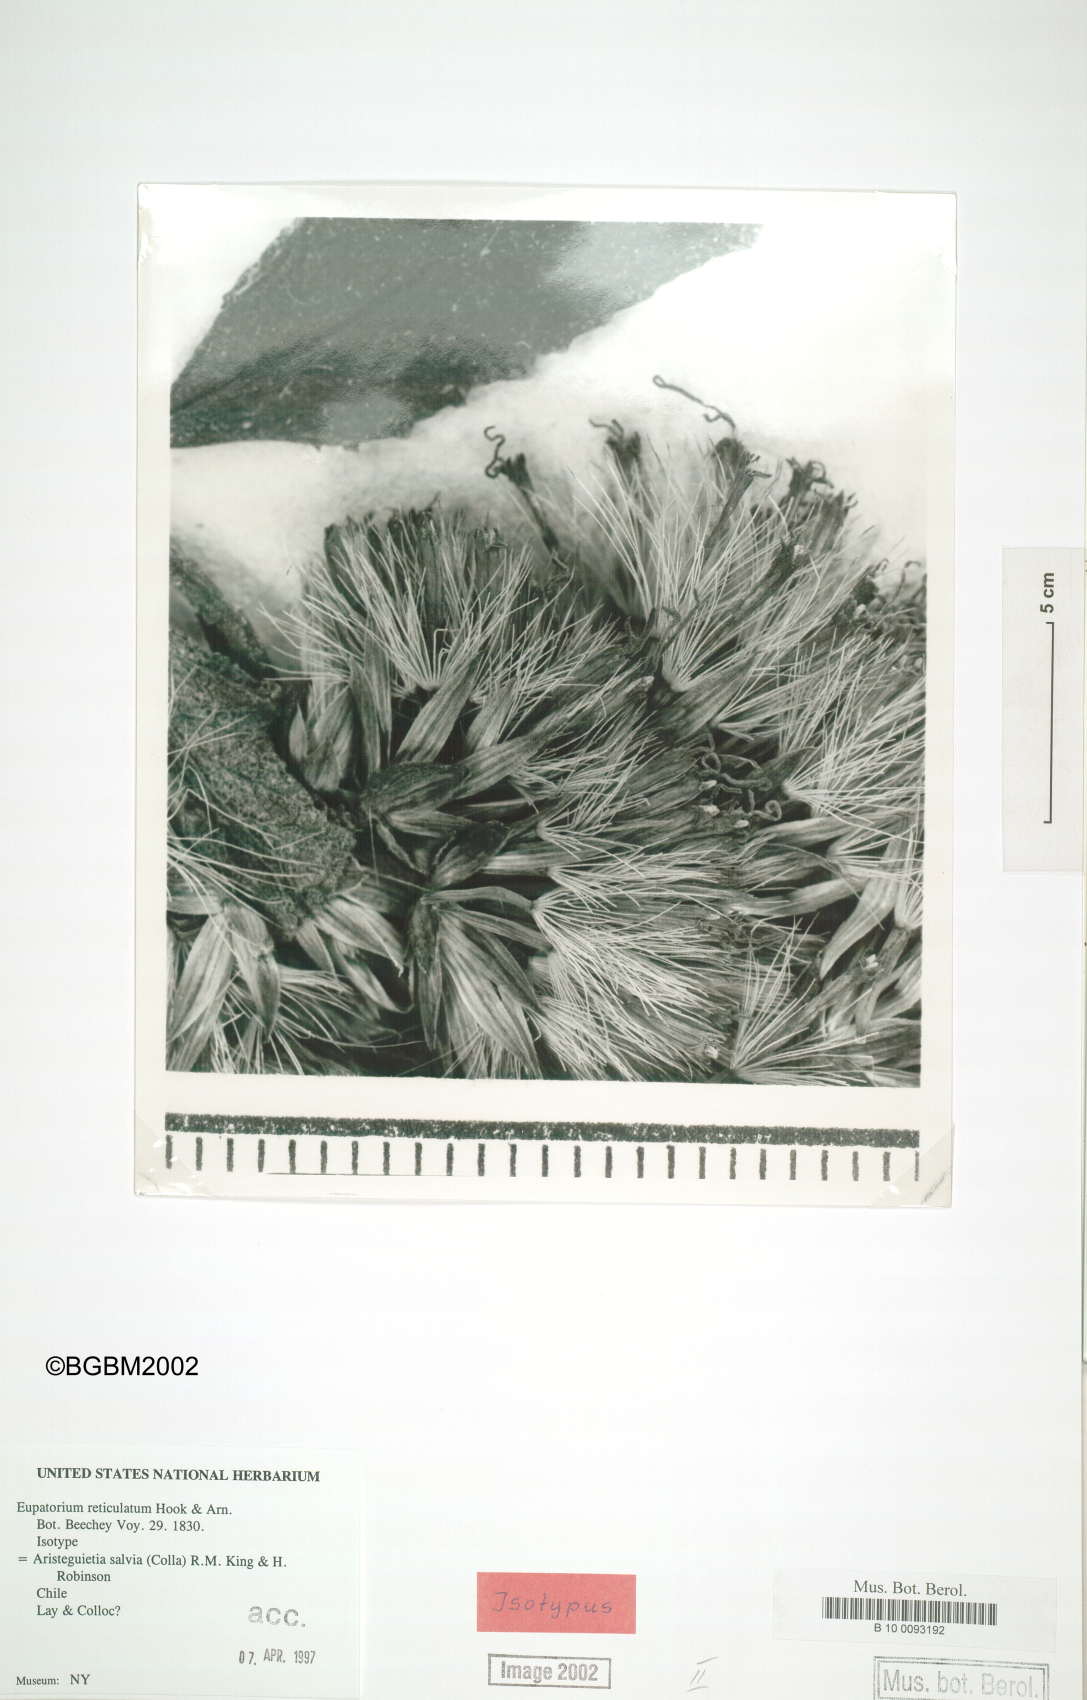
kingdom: Plantae
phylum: Tracheophyta
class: Magnoliopsida
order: Asterales
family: Asteraceae
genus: Aristeguietia
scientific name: Aristeguietia salvia
